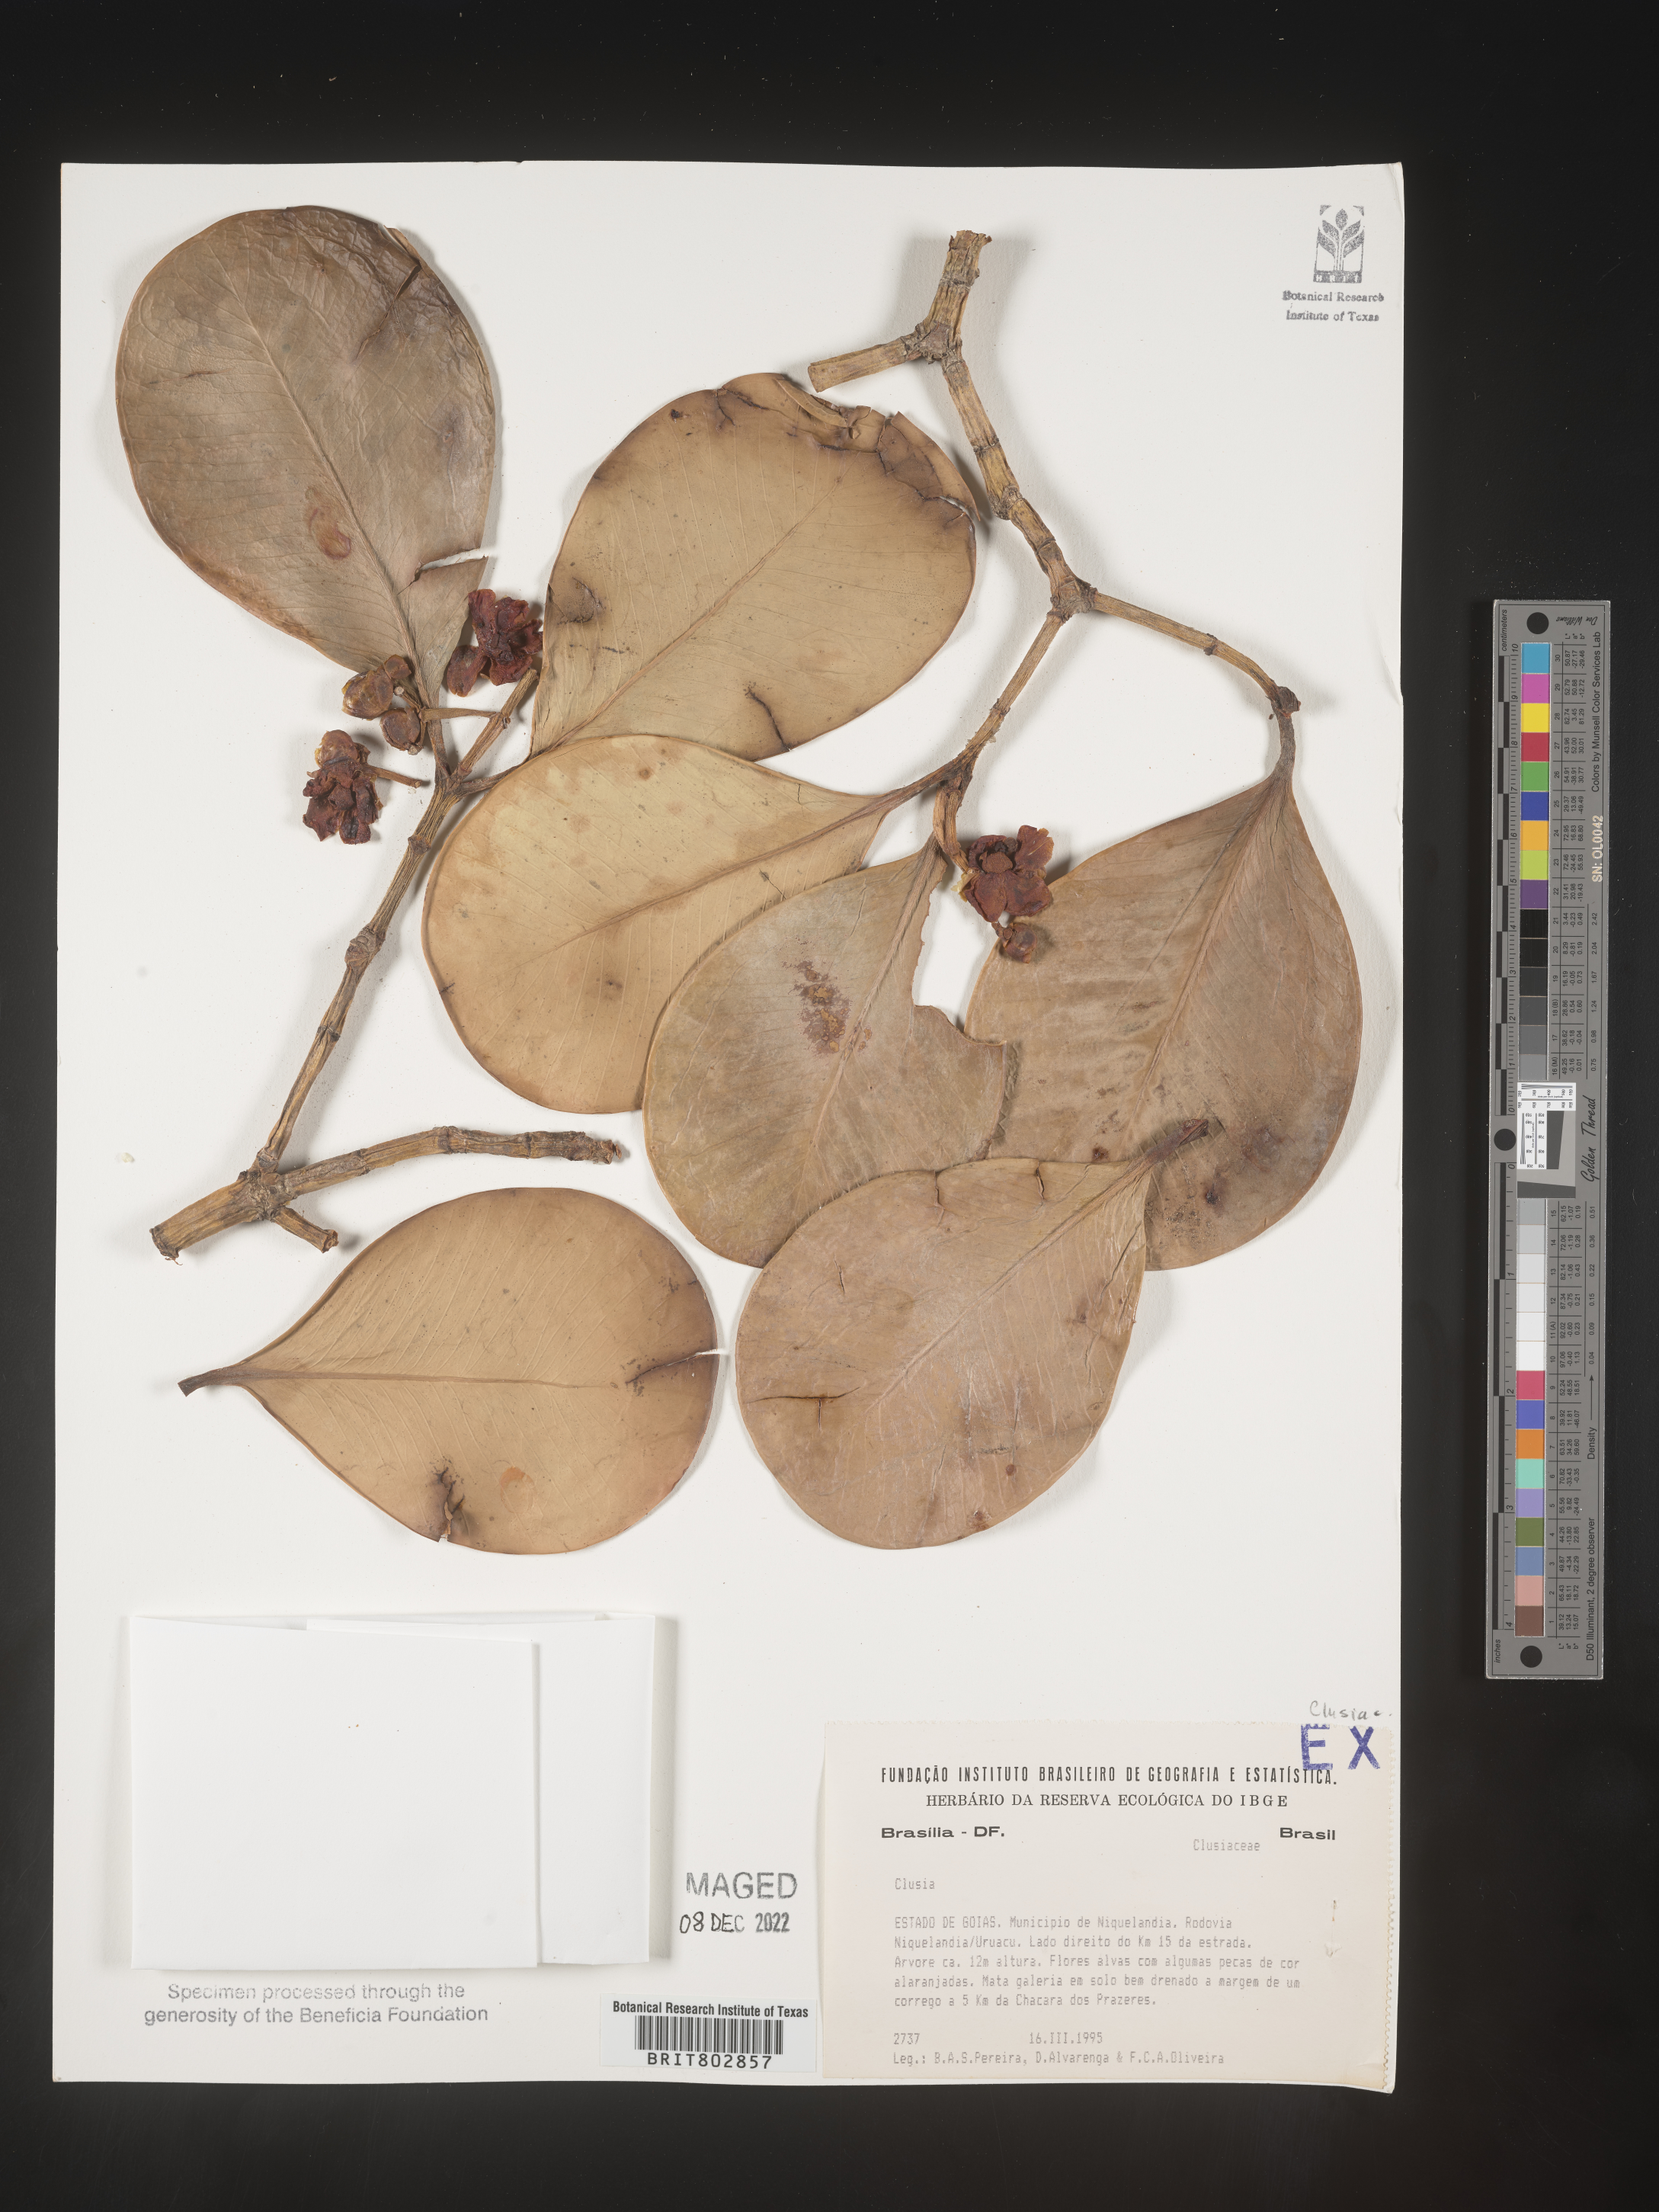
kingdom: Plantae
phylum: Tracheophyta
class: Magnoliopsida
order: Malpighiales
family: Clusiaceae
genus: Clusia
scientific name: Clusia
